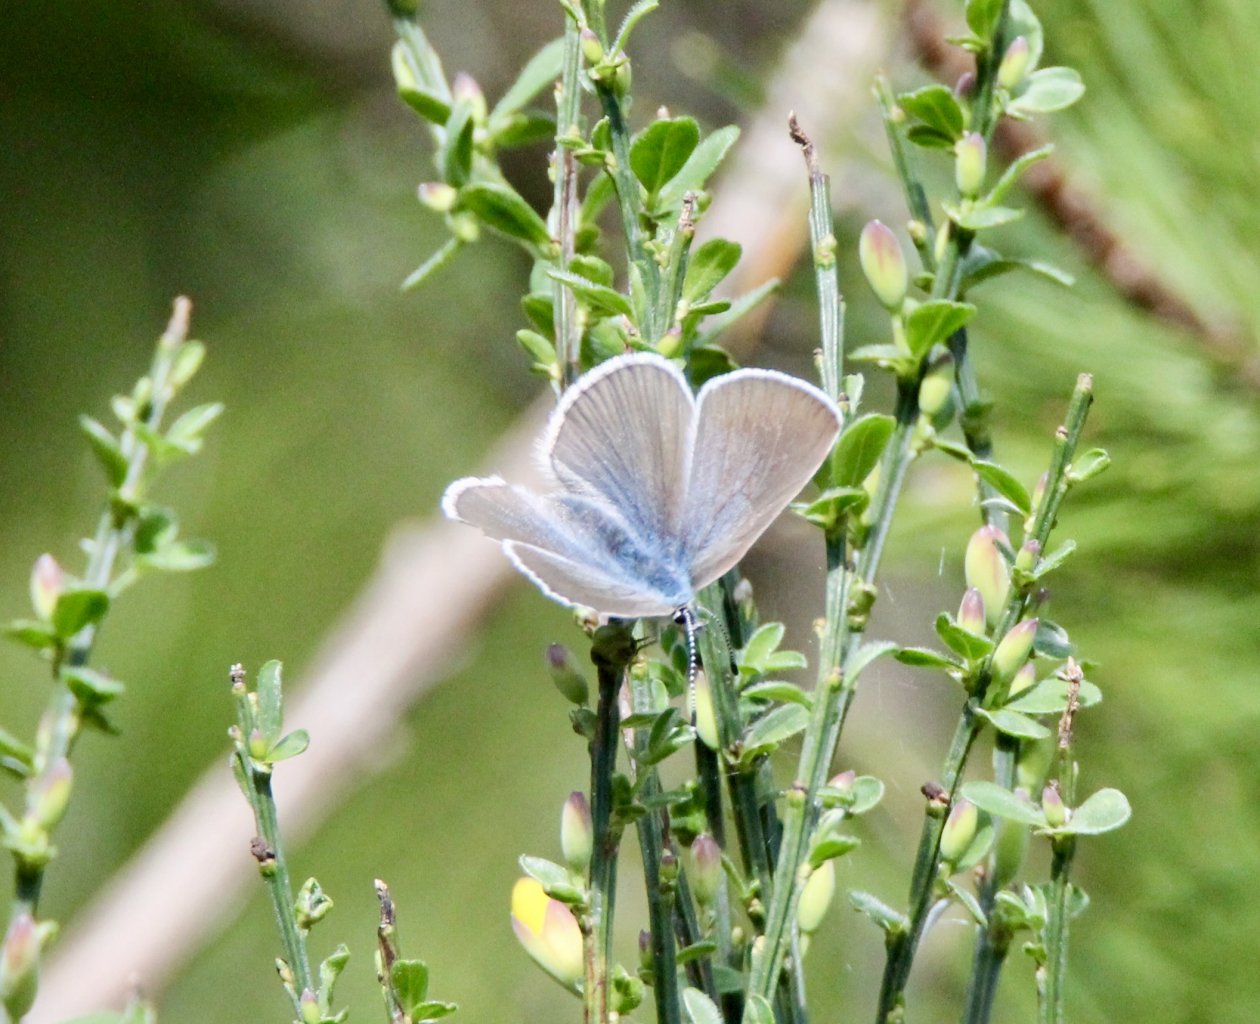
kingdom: Animalia
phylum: Arthropoda
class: Insecta
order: Lepidoptera
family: Lycaenidae
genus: Glaucopsyche
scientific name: Glaucopsyche lygdamus
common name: Silvery Blue
